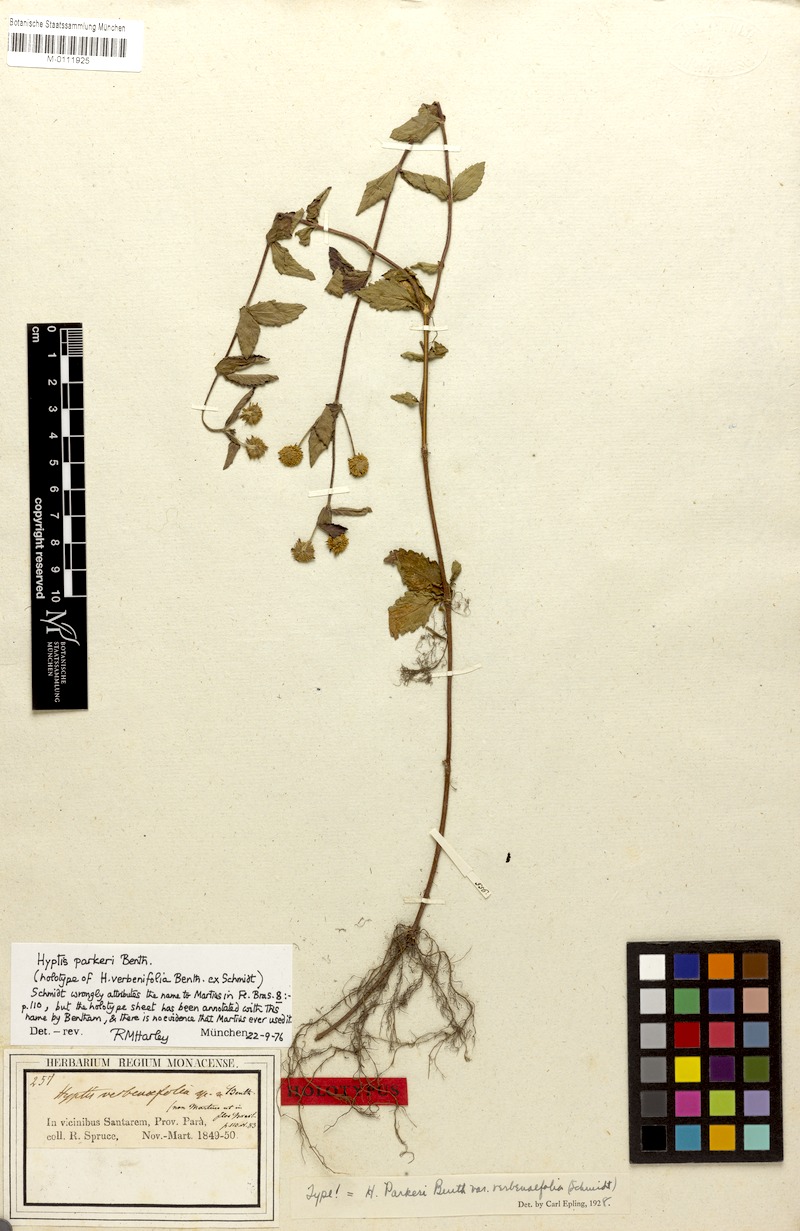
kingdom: Plantae
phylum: Tracheophyta
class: Magnoliopsida
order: Lamiales
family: Lamiaceae
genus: Hyptis
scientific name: Hyptis parkeri
